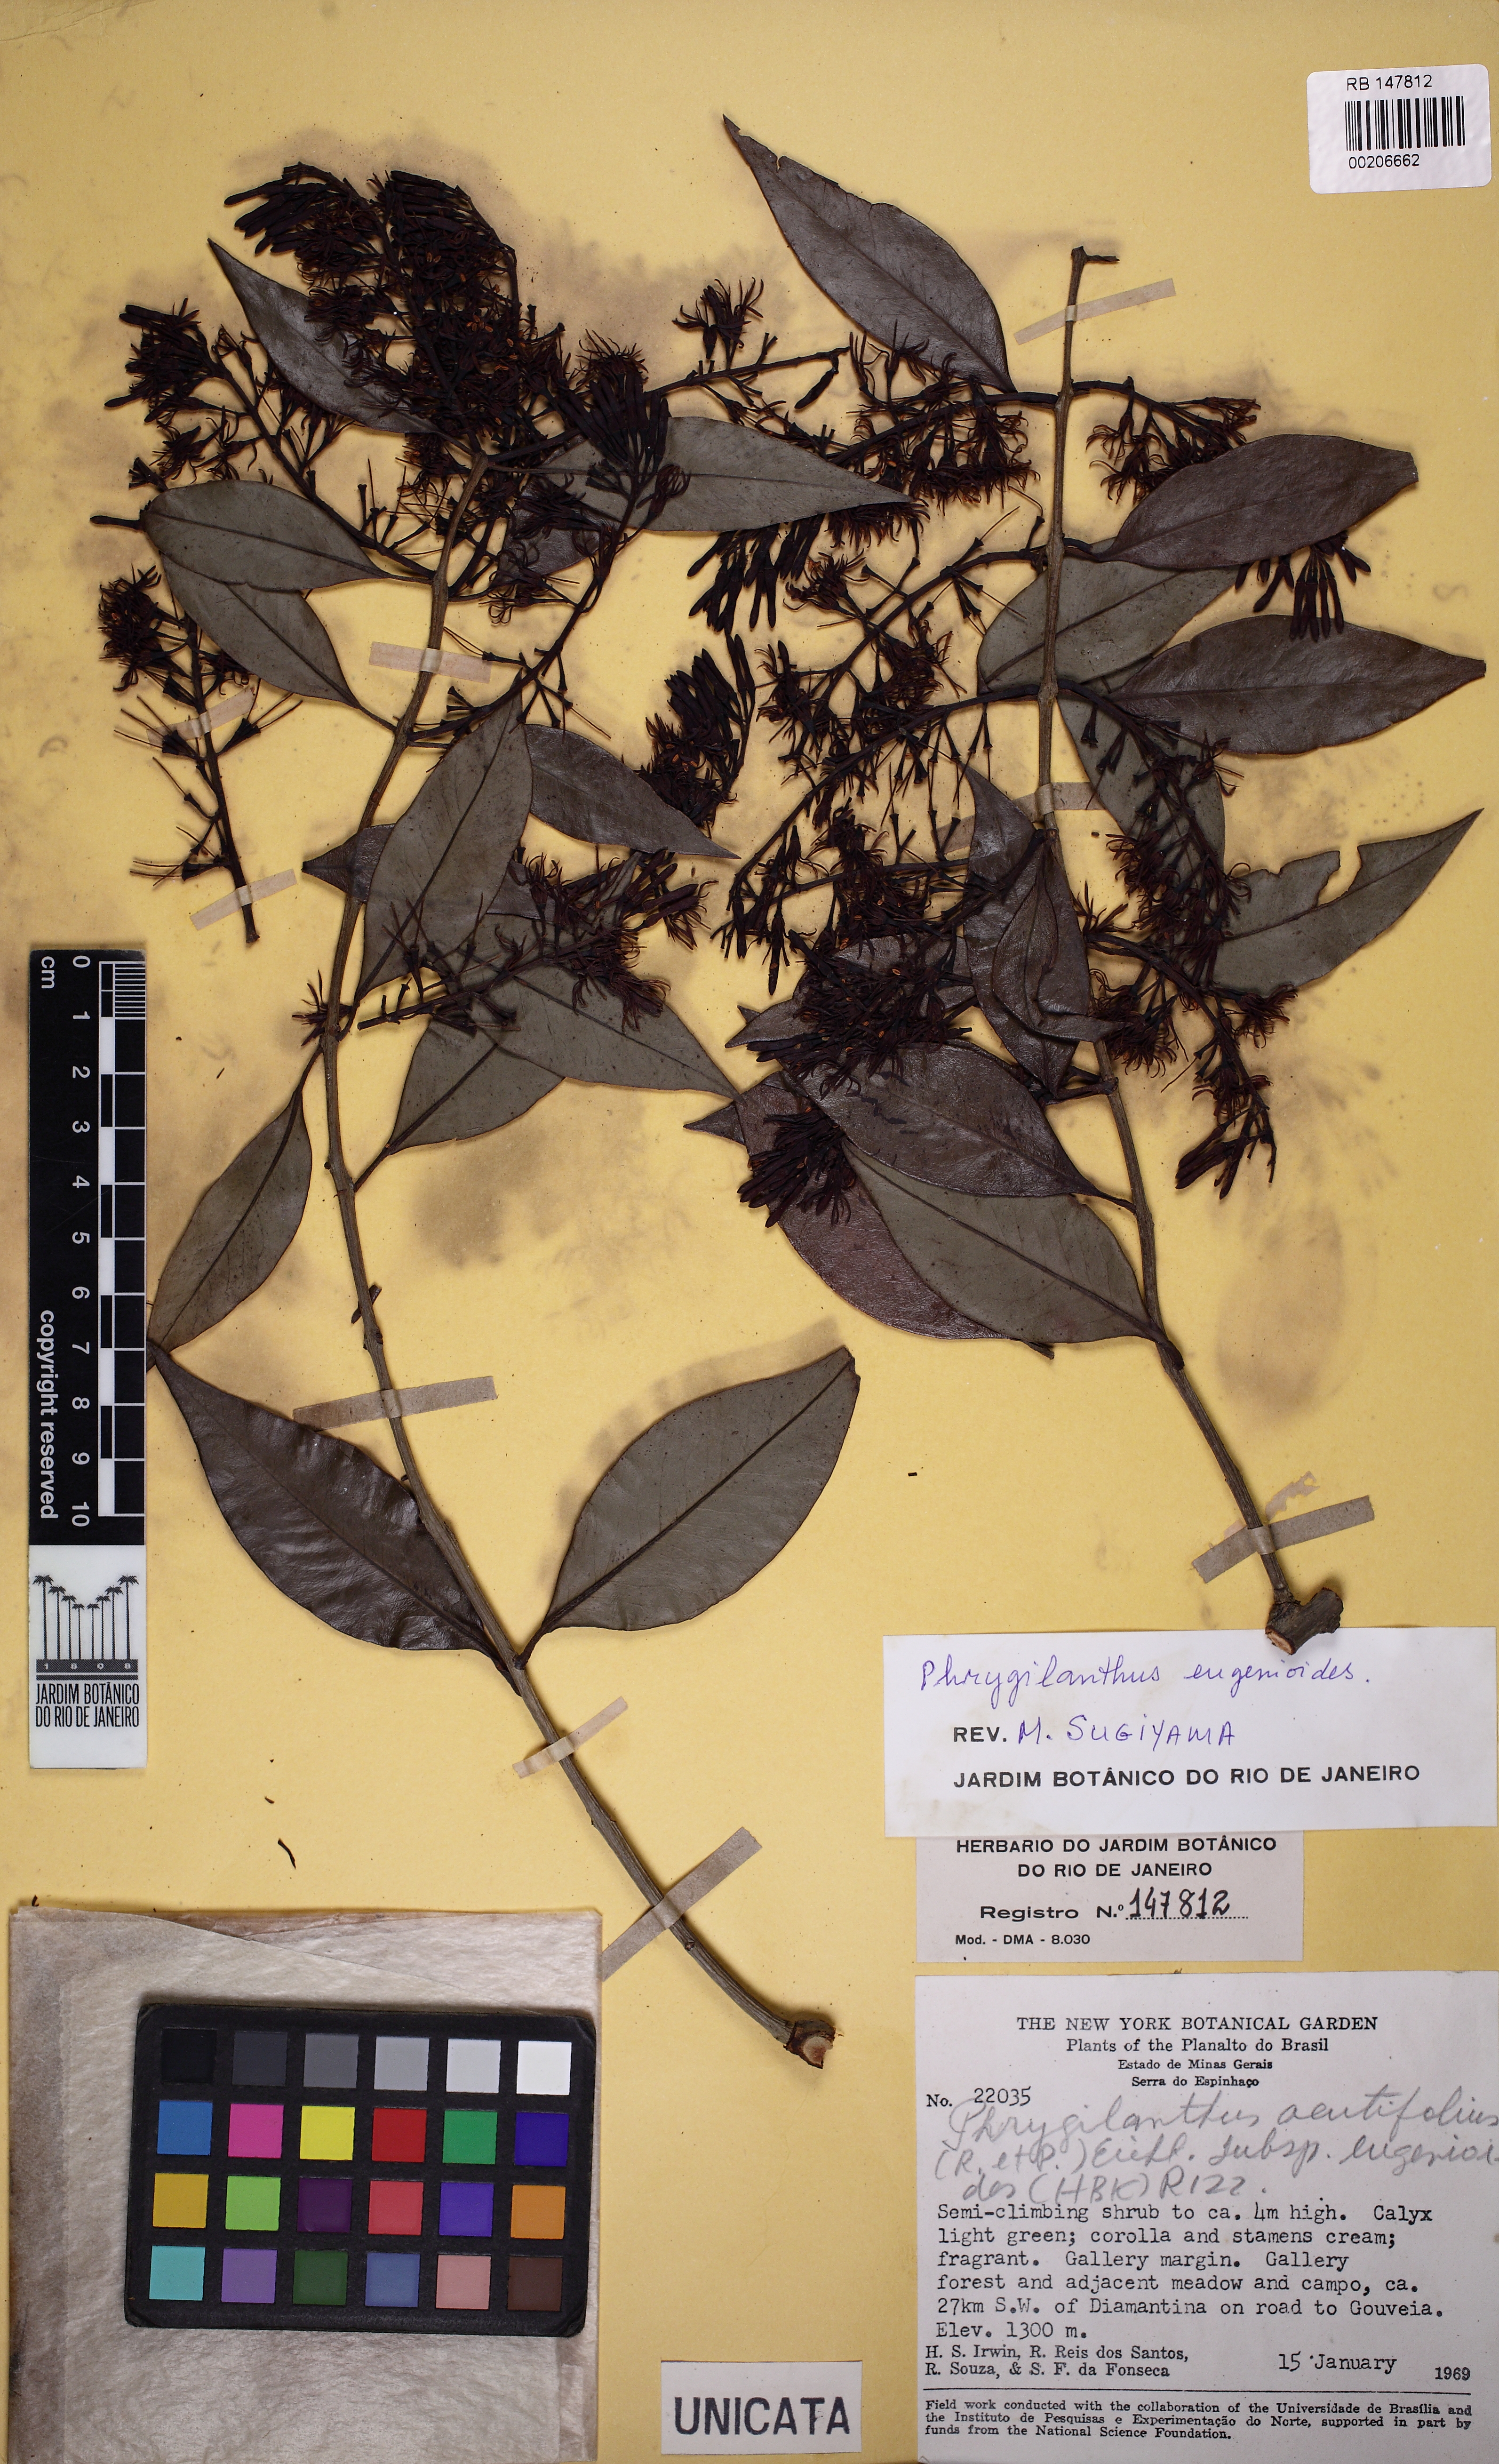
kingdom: Plantae
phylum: Tracheophyta
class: Magnoliopsida
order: Santalales
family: Loranthaceae
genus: Tripodanthus
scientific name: Tripodanthus acutifolius
